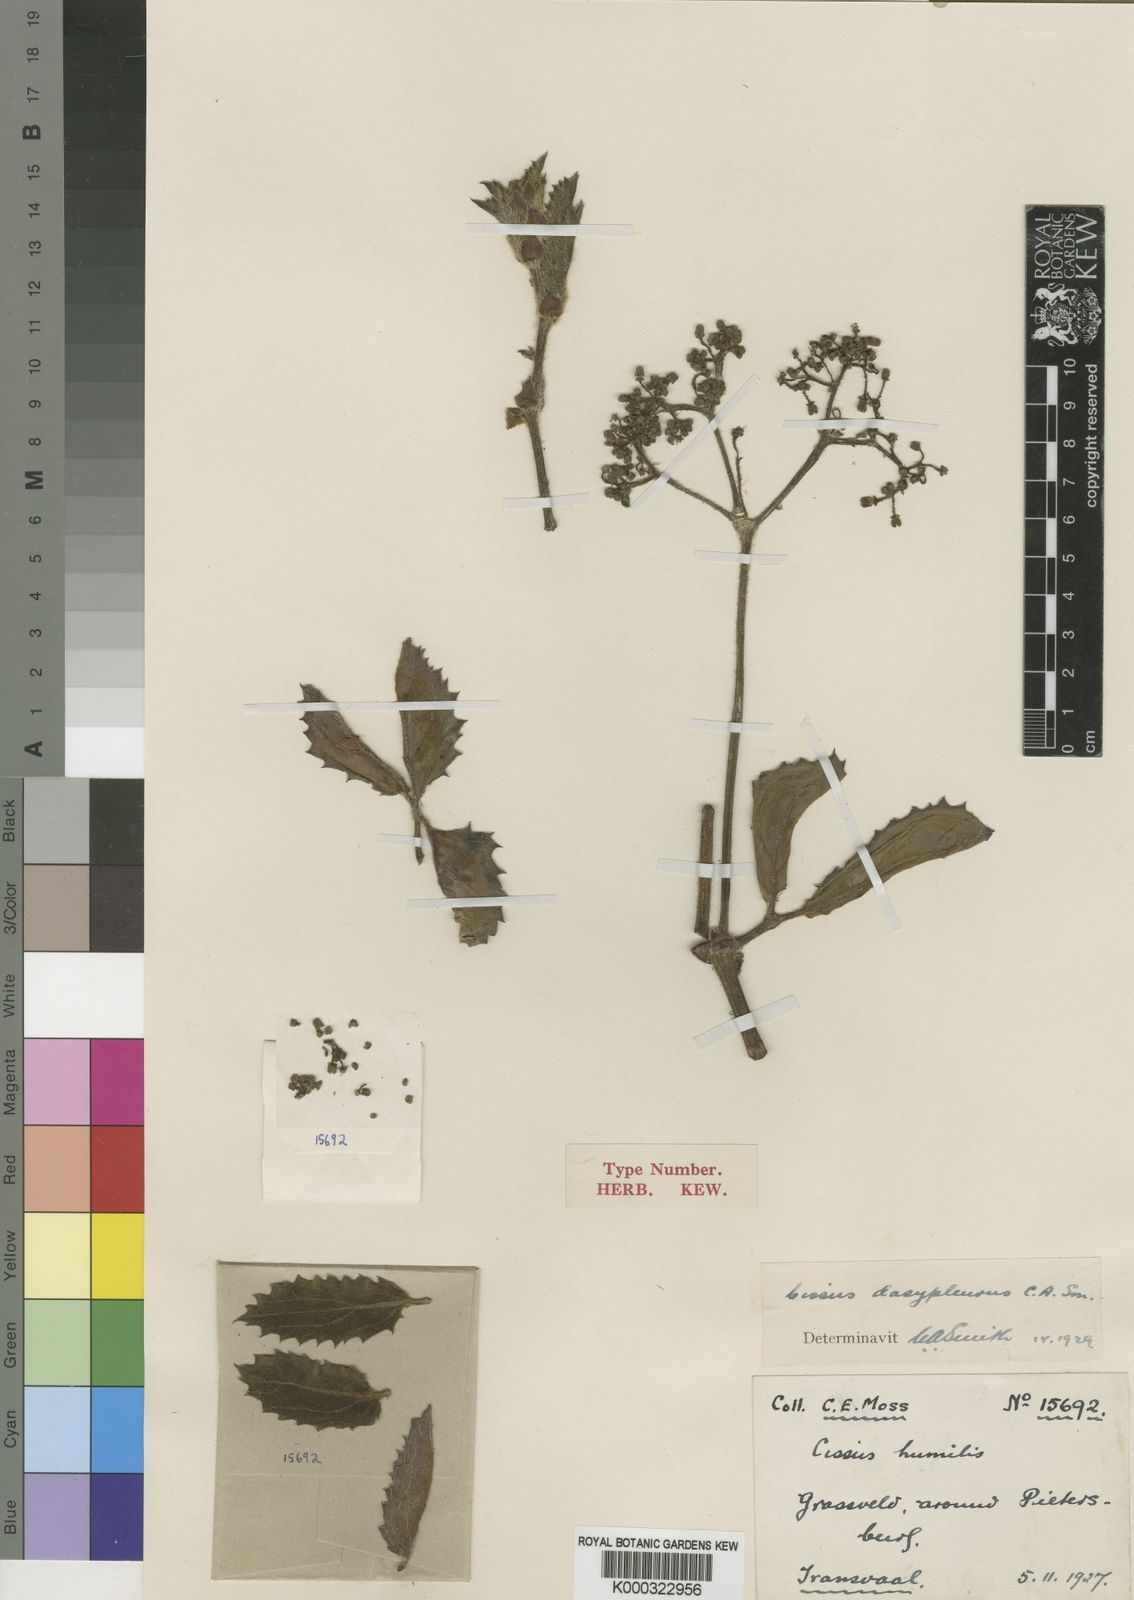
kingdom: Plantae
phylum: Tracheophyta
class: Magnoliopsida
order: Vitales
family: Vitaceae
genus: Cyphostemma
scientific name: Cyphostemma dasypleurum
